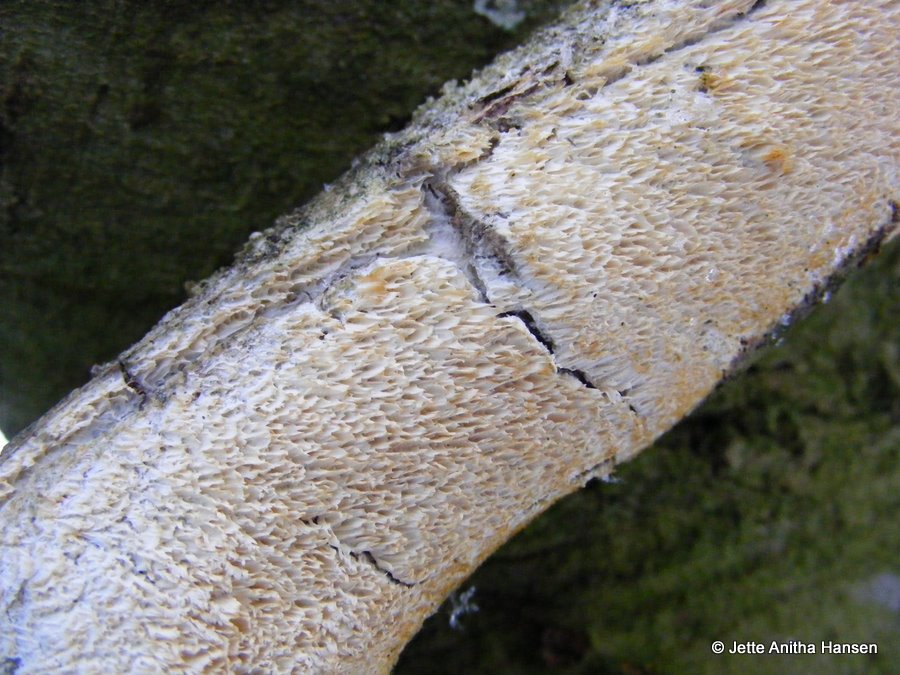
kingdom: Fungi
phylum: Basidiomycota
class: Agaricomycetes
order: Hymenochaetales
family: Schizoporaceae
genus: Schizopora
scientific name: Schizopora paradoxa
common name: hvid tandsvamp
